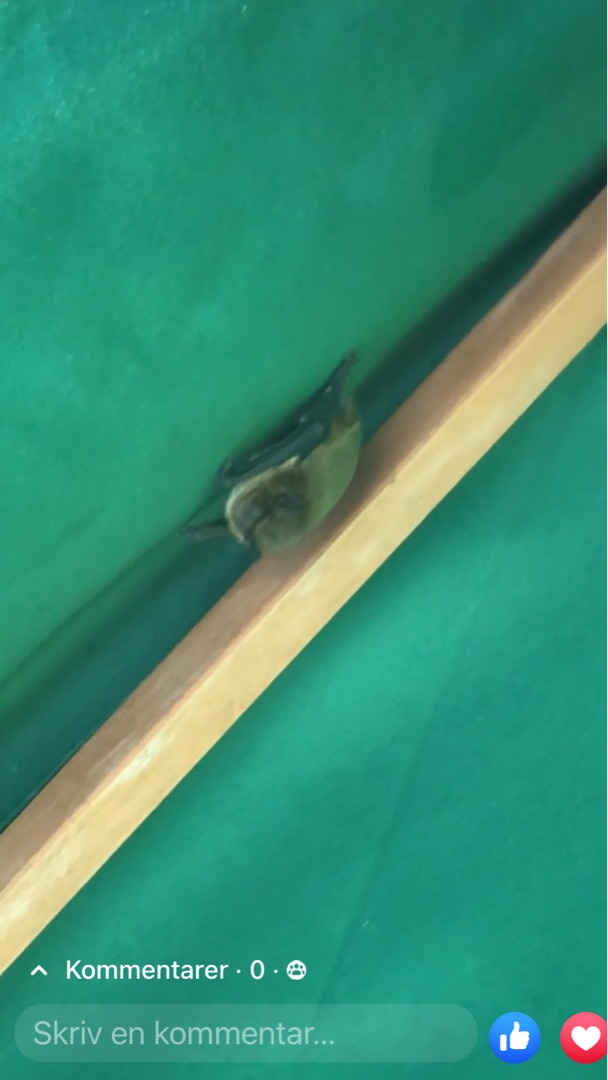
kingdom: Animalia
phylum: Chordata
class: Mammalia
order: Chiroptera
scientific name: Chiroptera
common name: Flagermus
